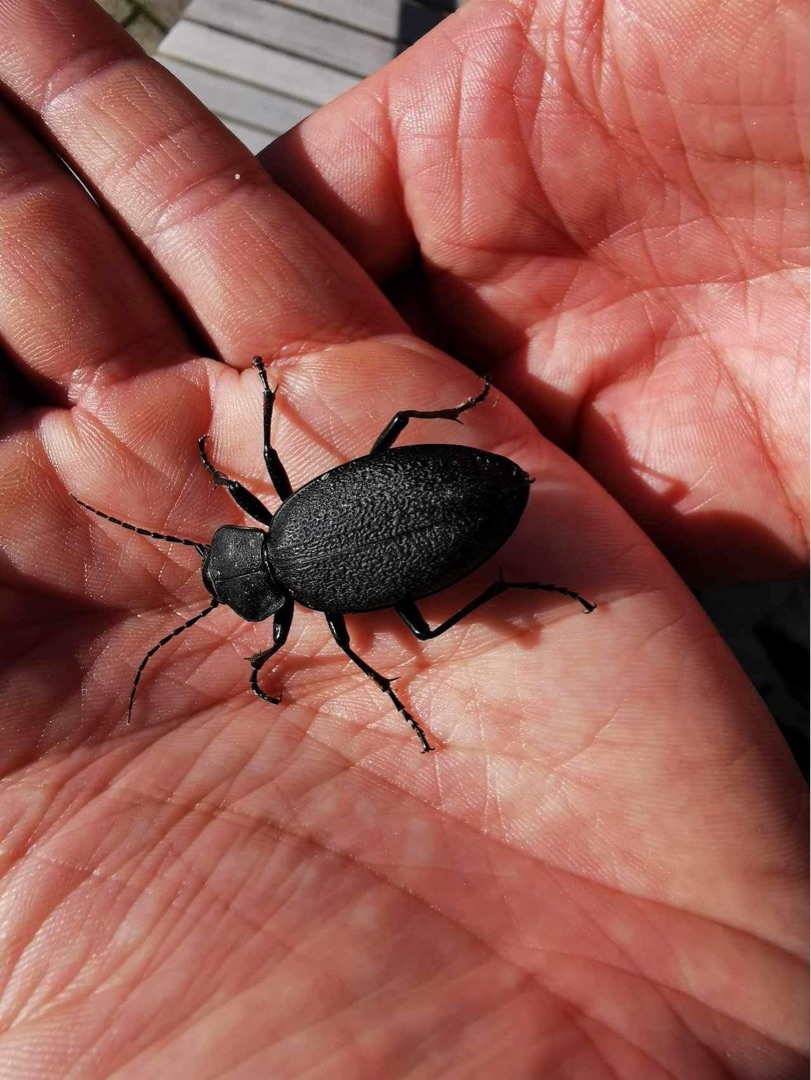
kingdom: Animalia
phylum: Arthropoda
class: Insecta
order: Coleoptera
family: Carabidae
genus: Carabus
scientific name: Carabus coriaceus
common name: Læderløber
